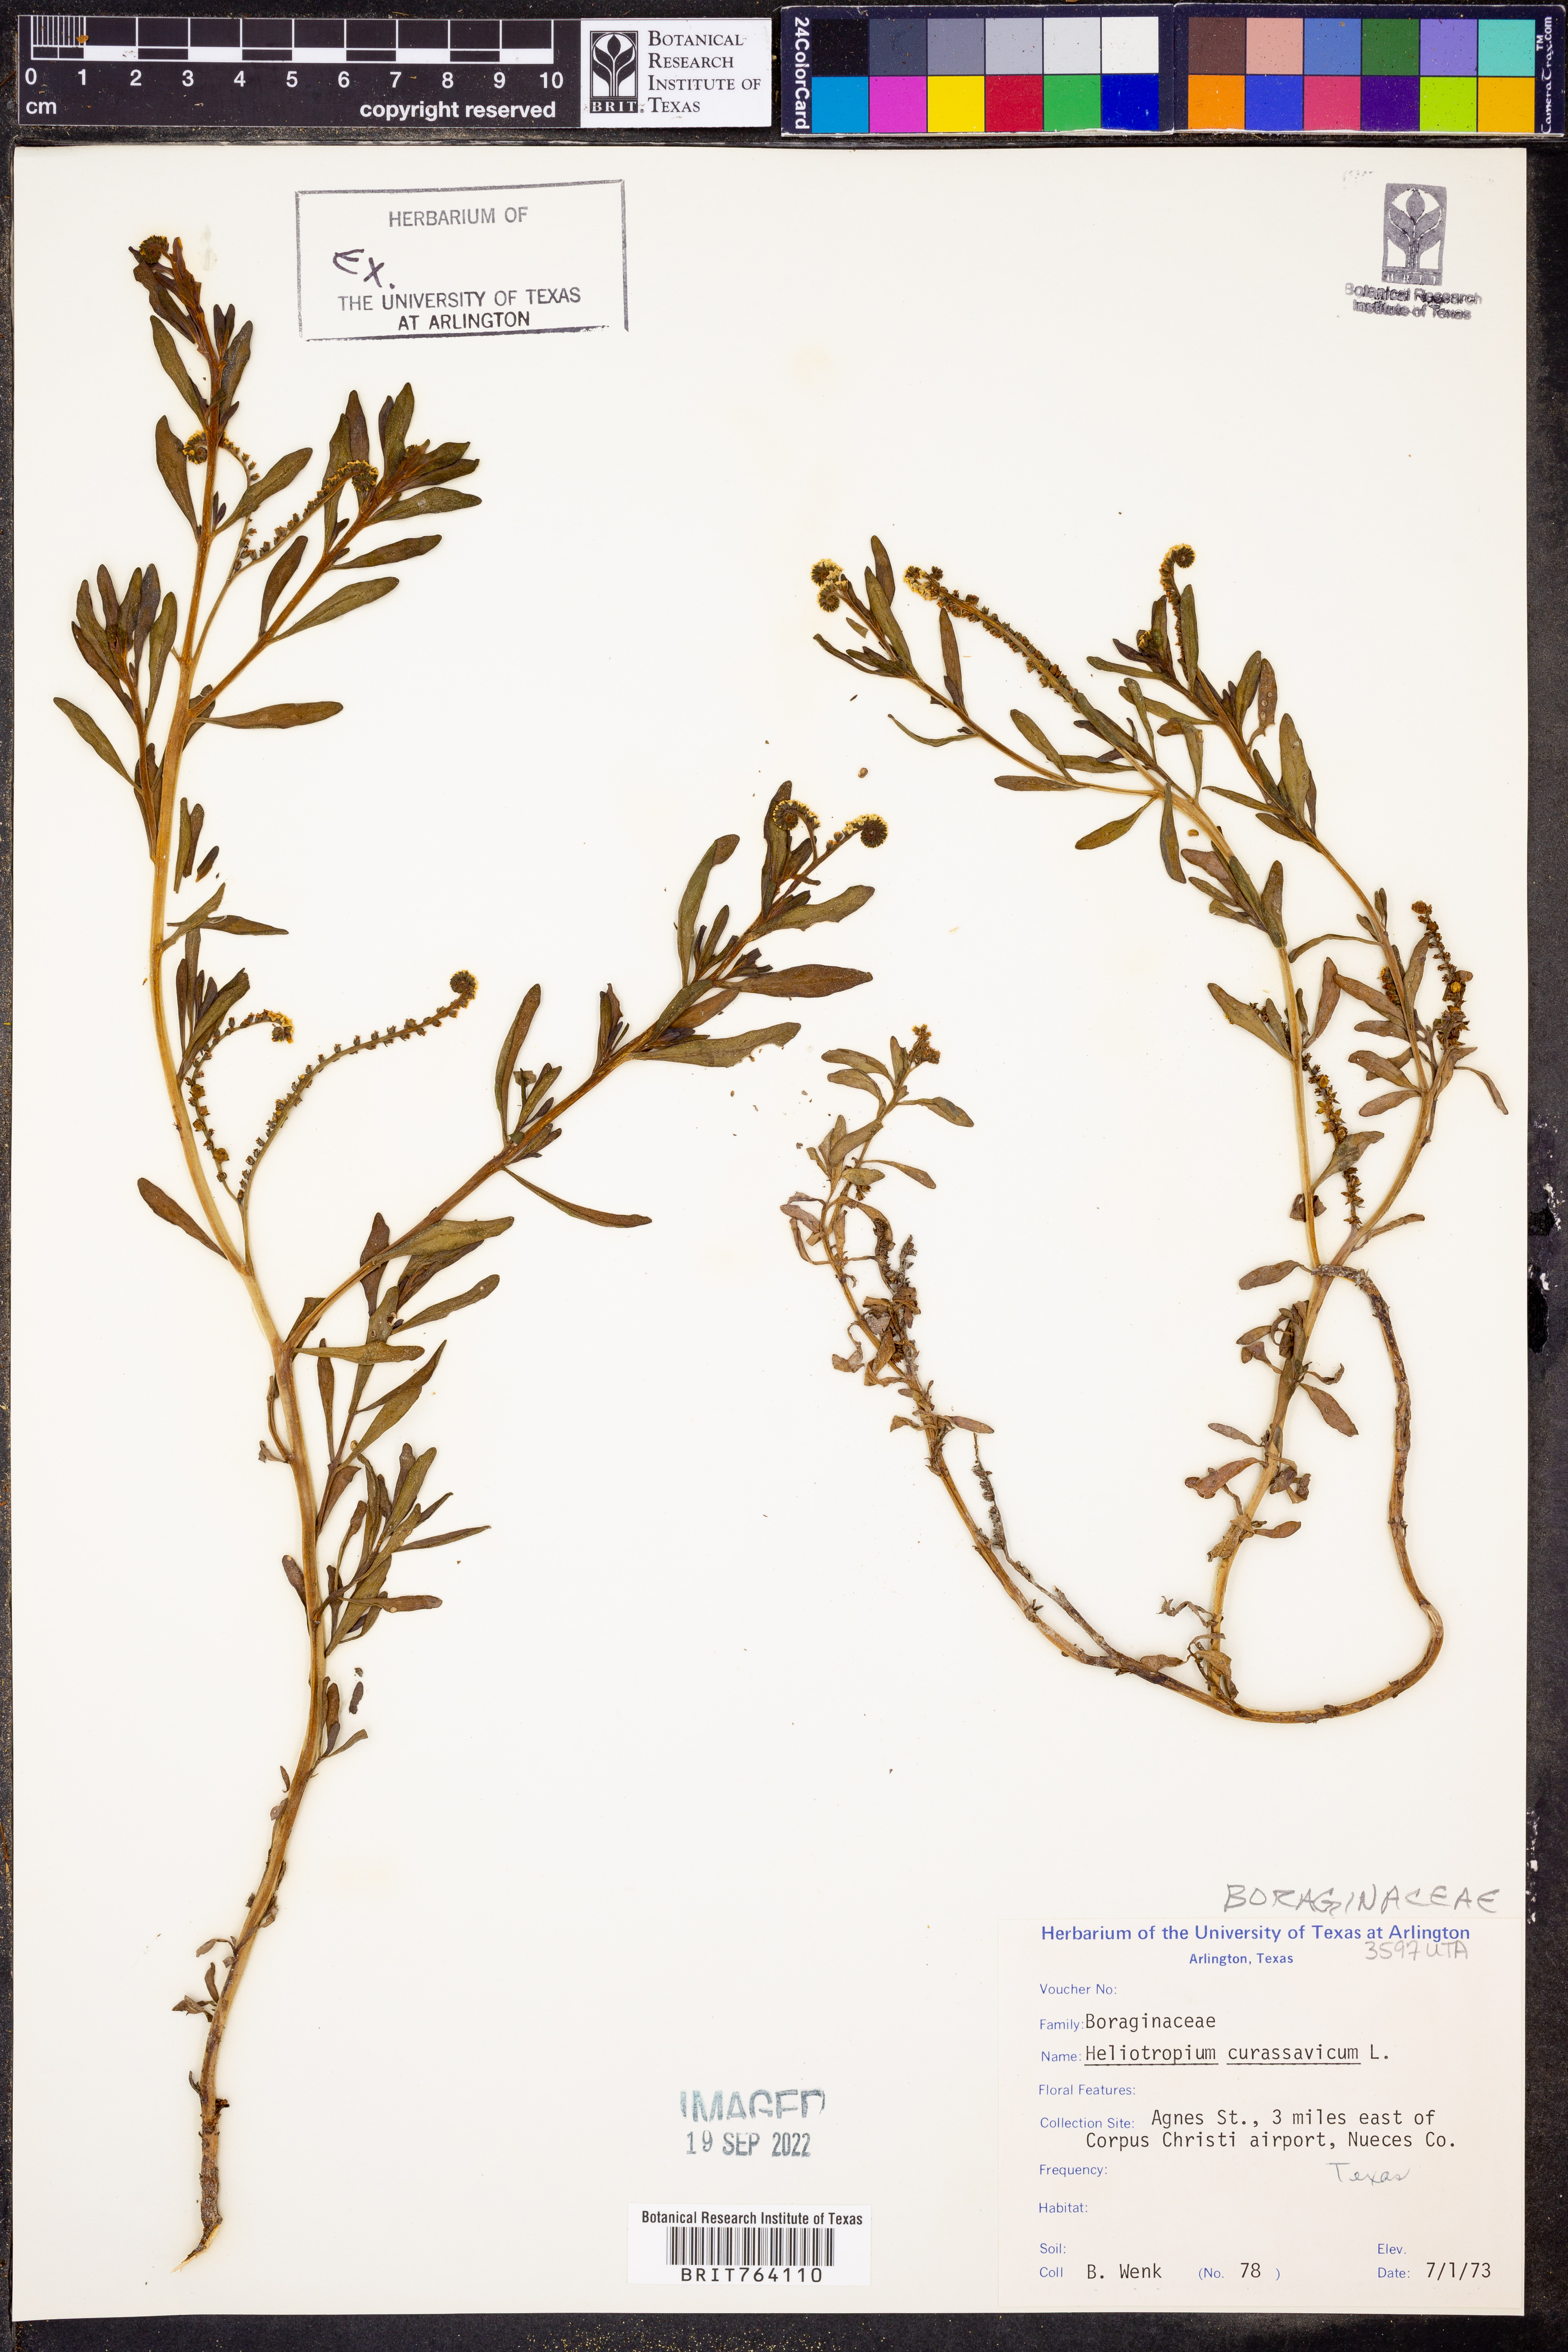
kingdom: Plantae
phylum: Tracheophyta
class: Magnoliopsida
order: Boraginales
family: Heliotropiaceae
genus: Heliotropium
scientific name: Heliotropium curassavicum
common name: Seaside heliotrope
